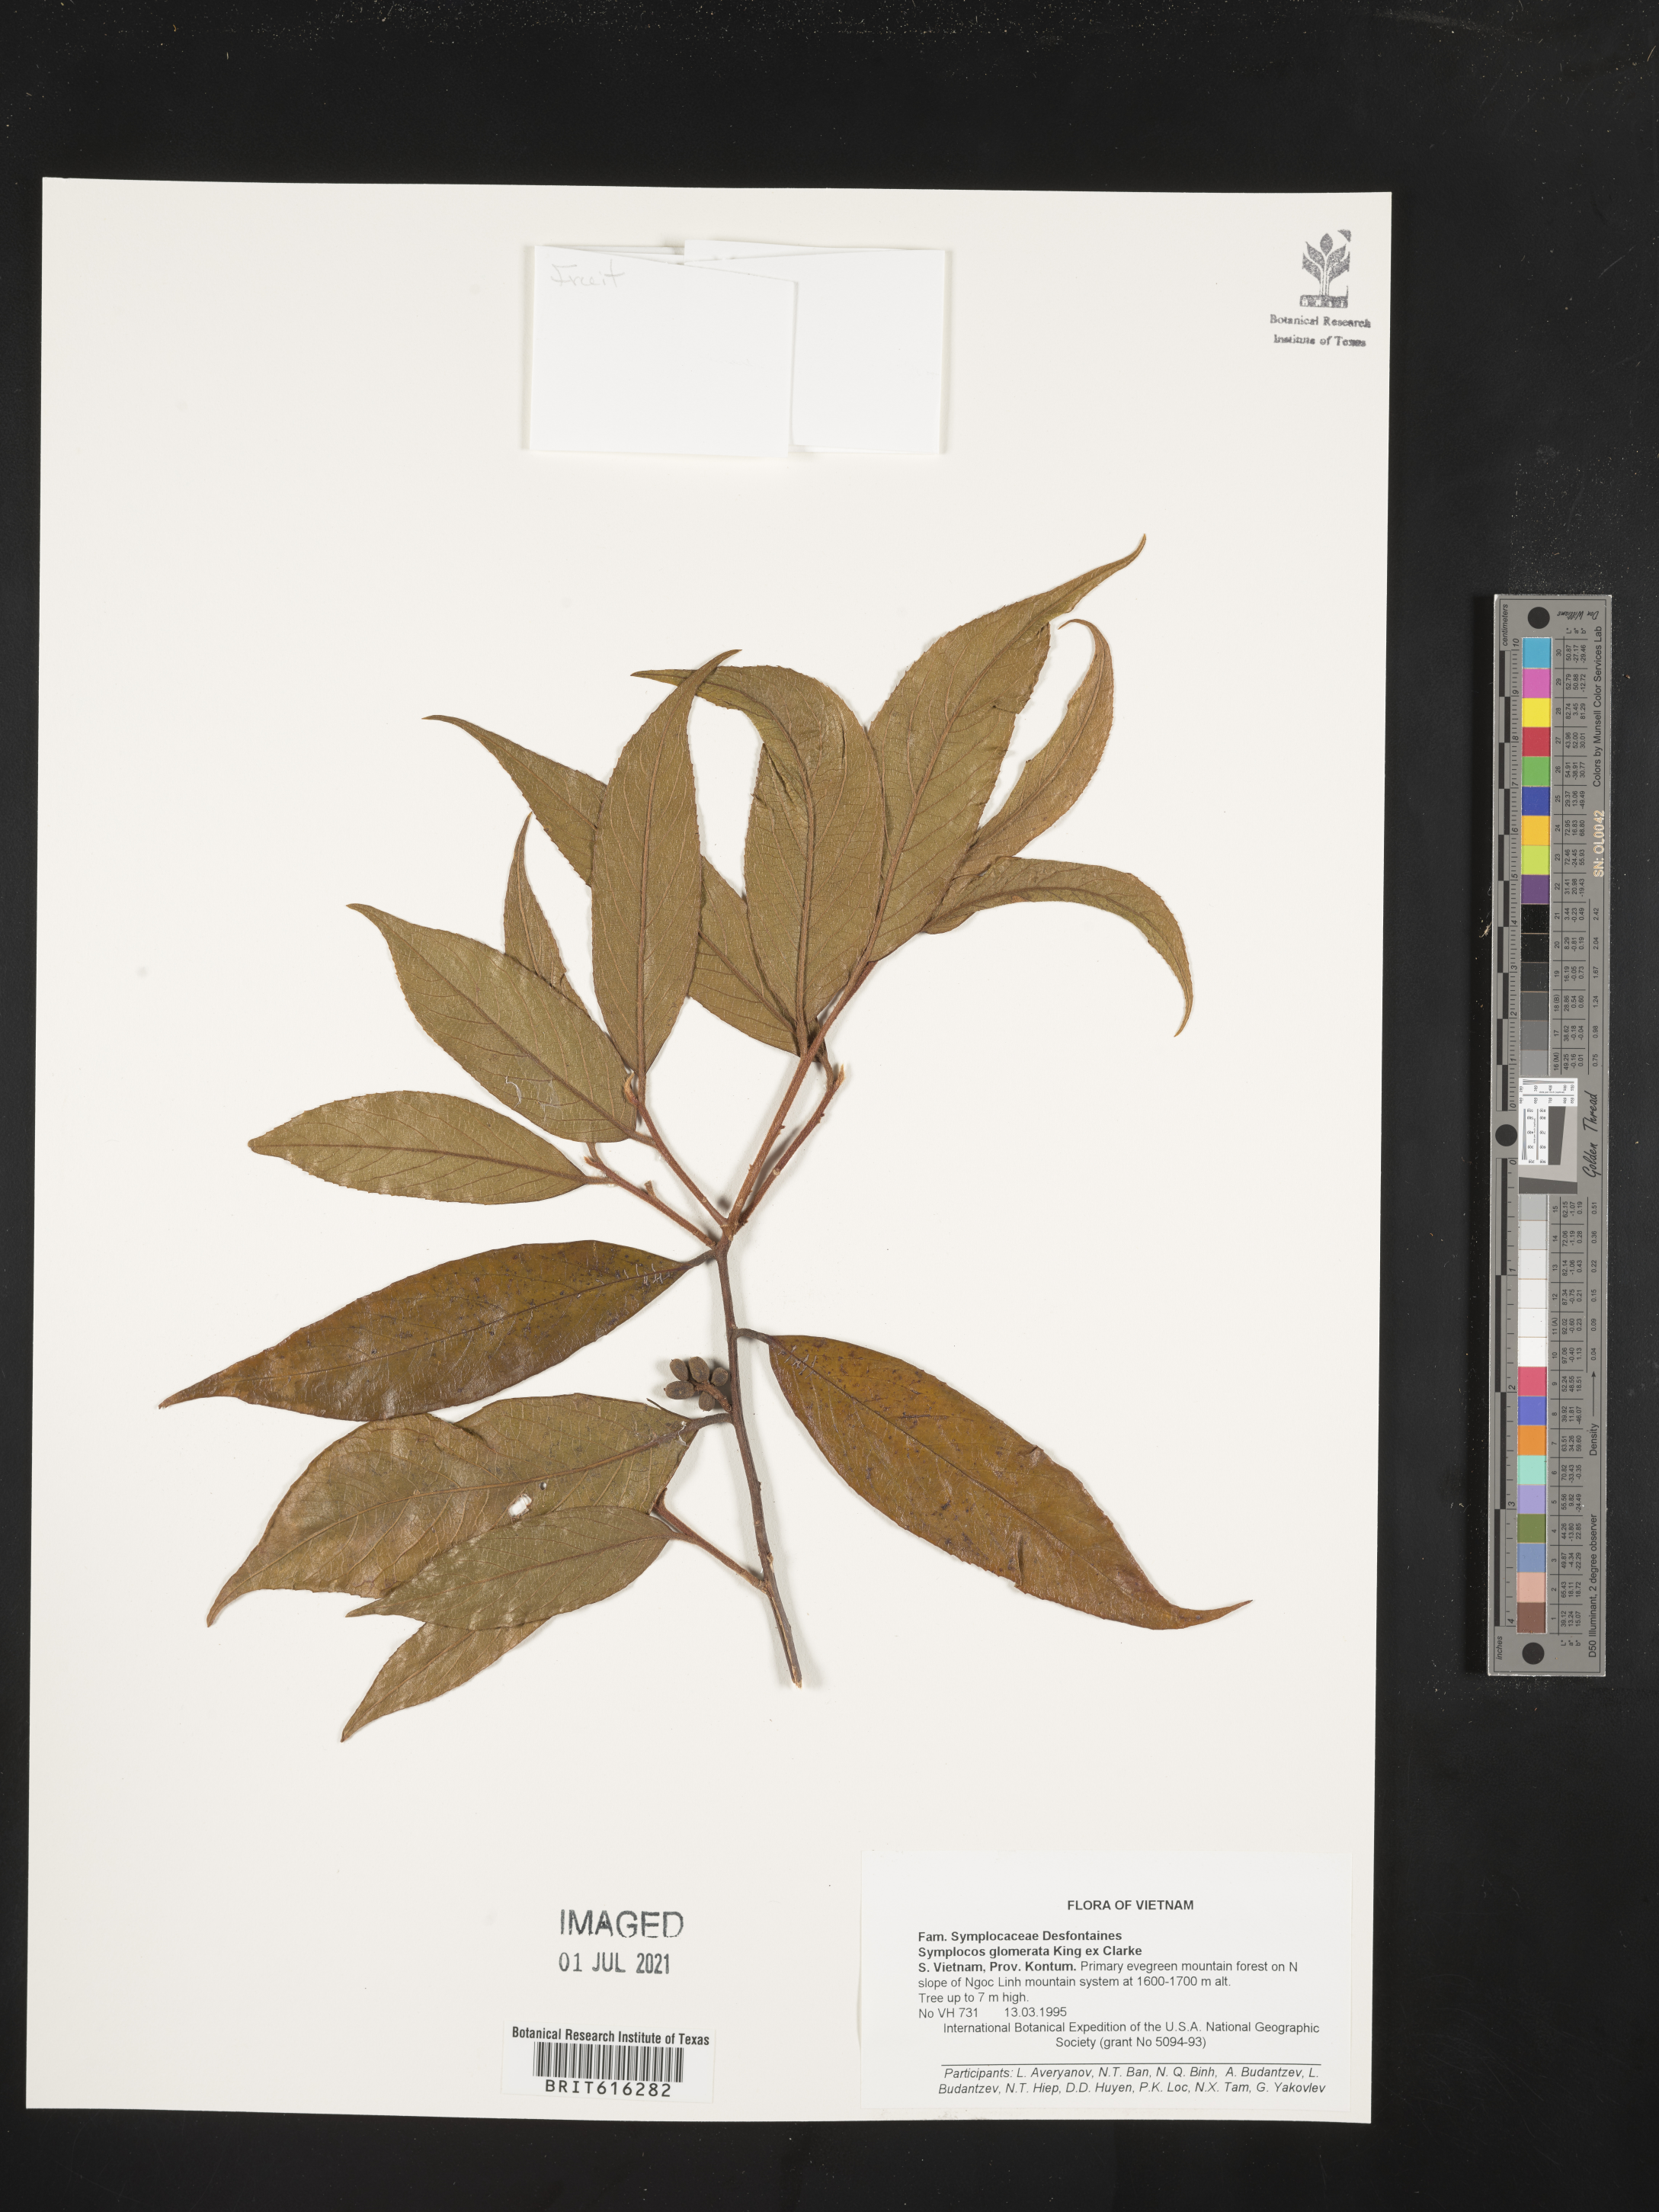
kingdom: Plantae
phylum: Tracheophyta
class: Magnoliopsida
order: Ericales
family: Symplocaceae
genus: Symplocos
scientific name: Symplocos glomerata
